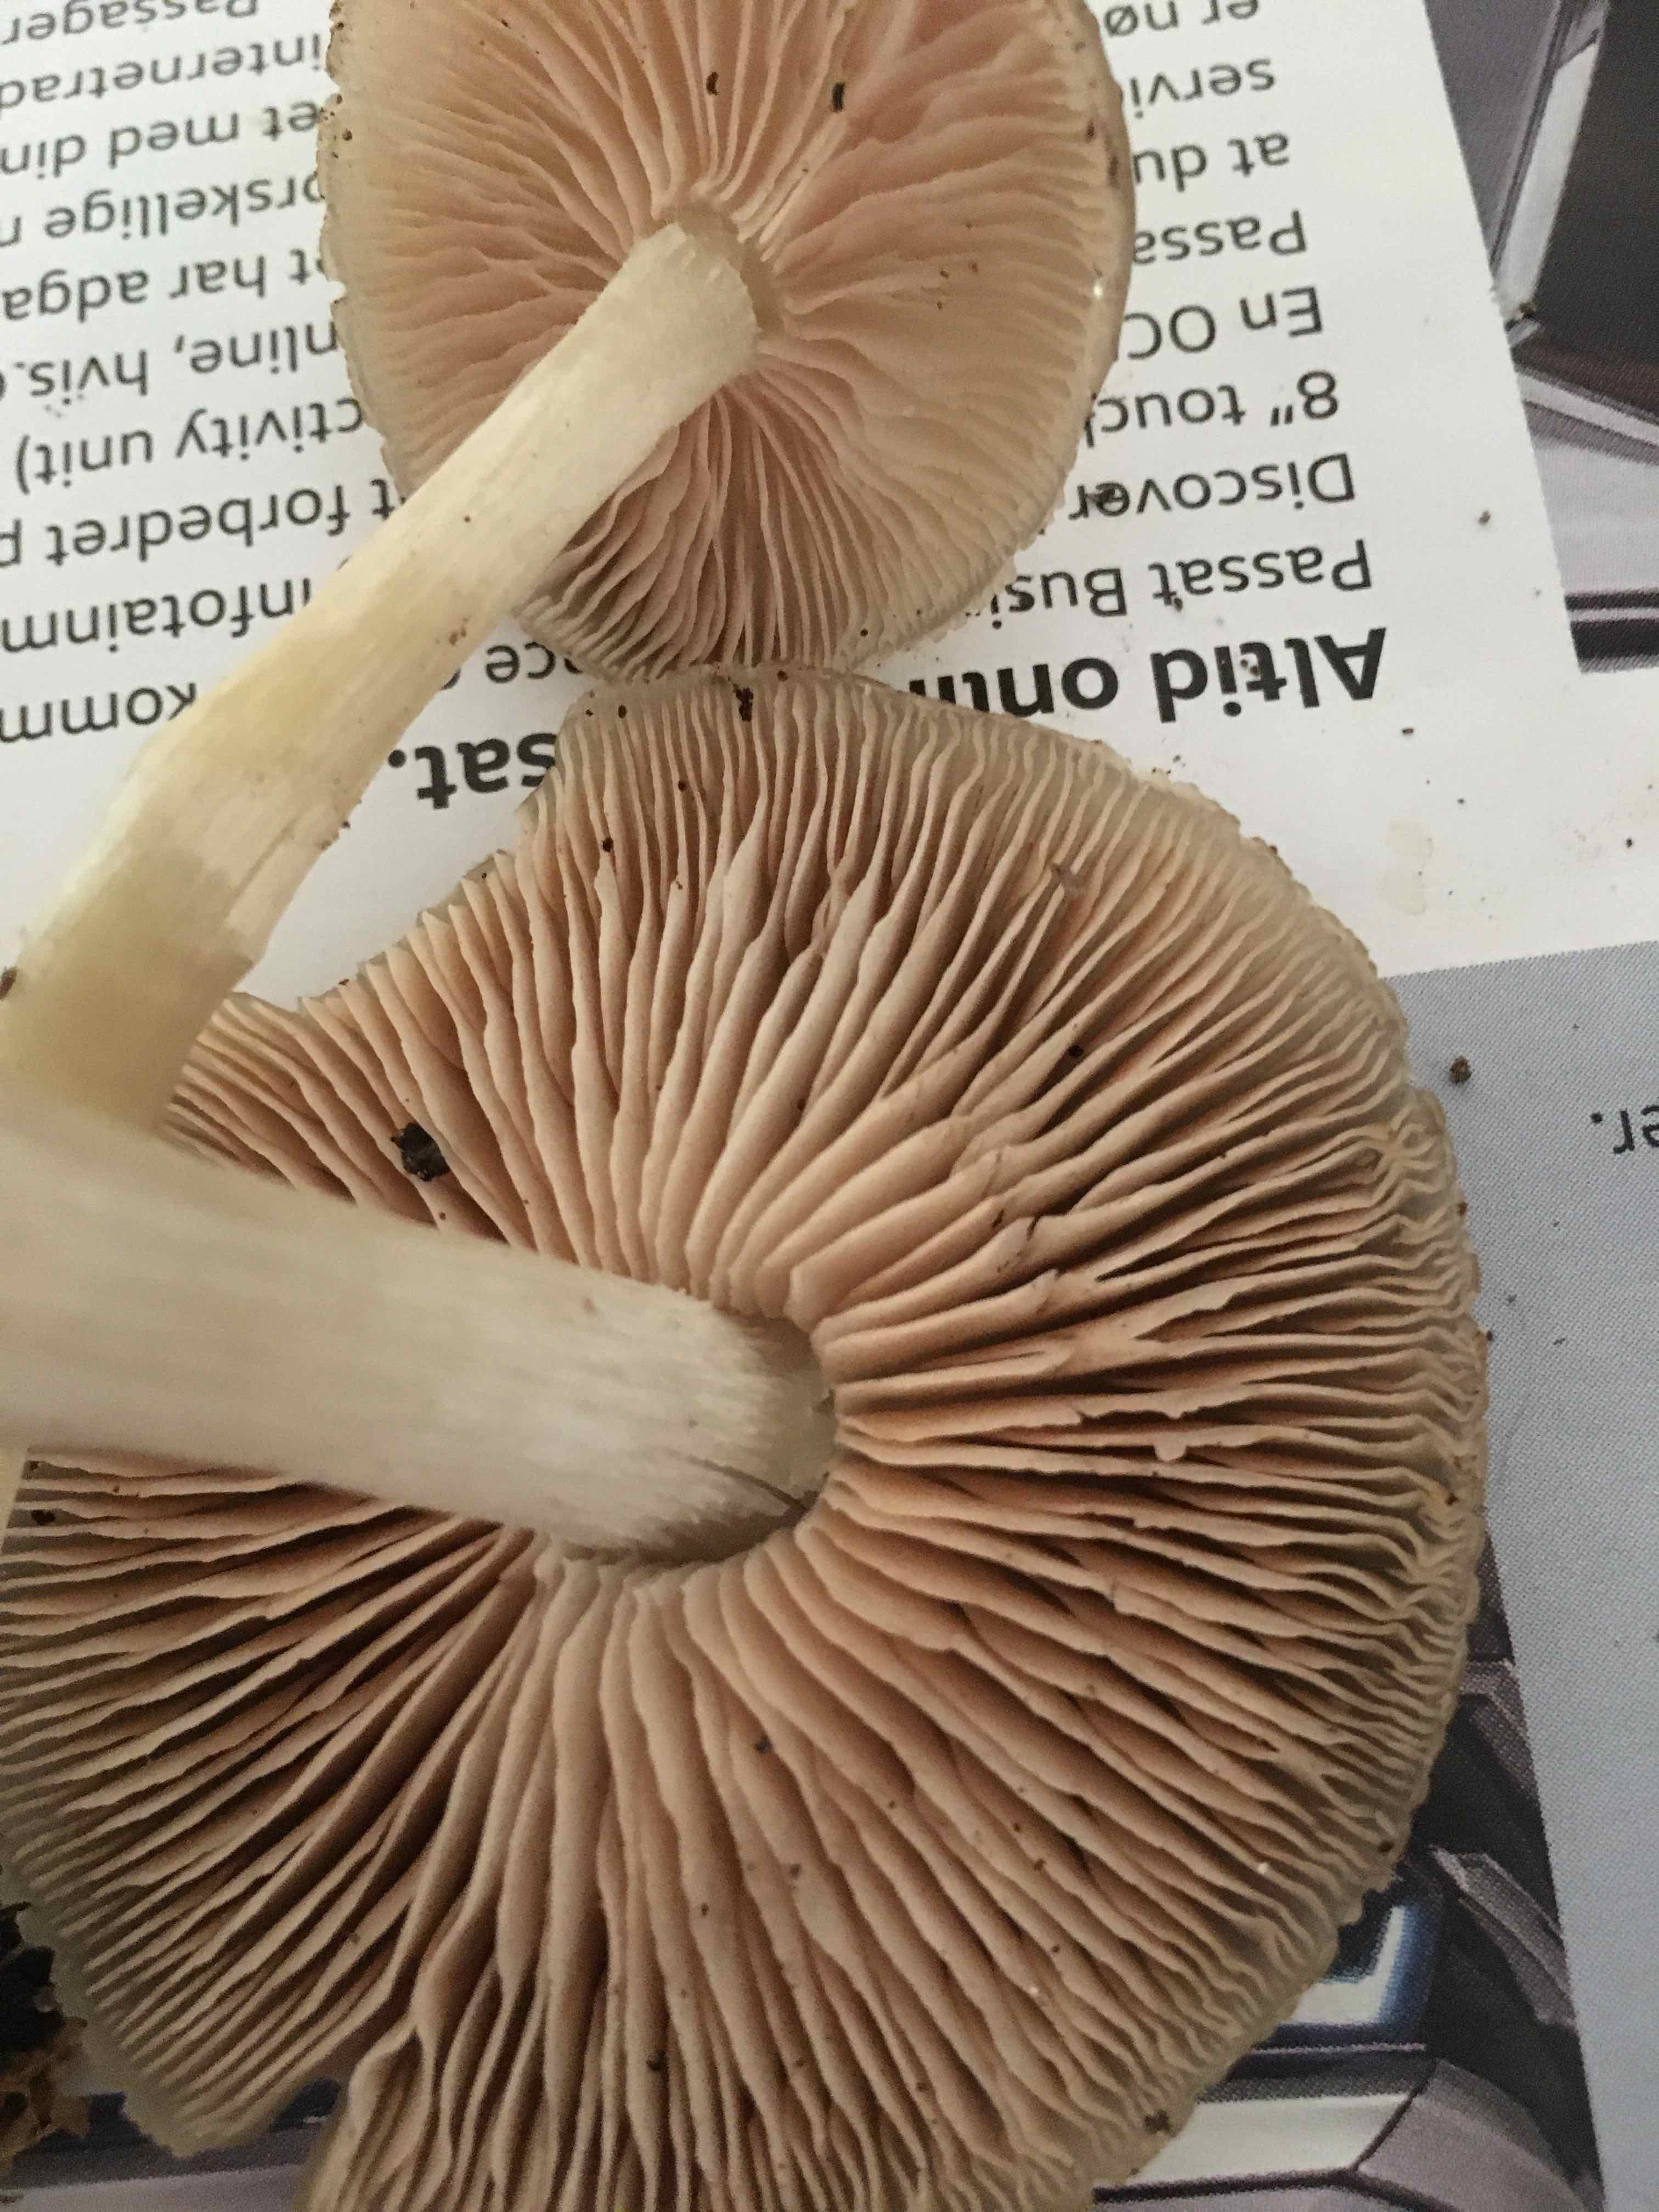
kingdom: Fungi
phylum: Basidiomycota
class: Agaricomycetes
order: Agaricales
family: Entolomataceae
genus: Entoloma
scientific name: Entoloma rhodopolium
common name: skov-rødblad
